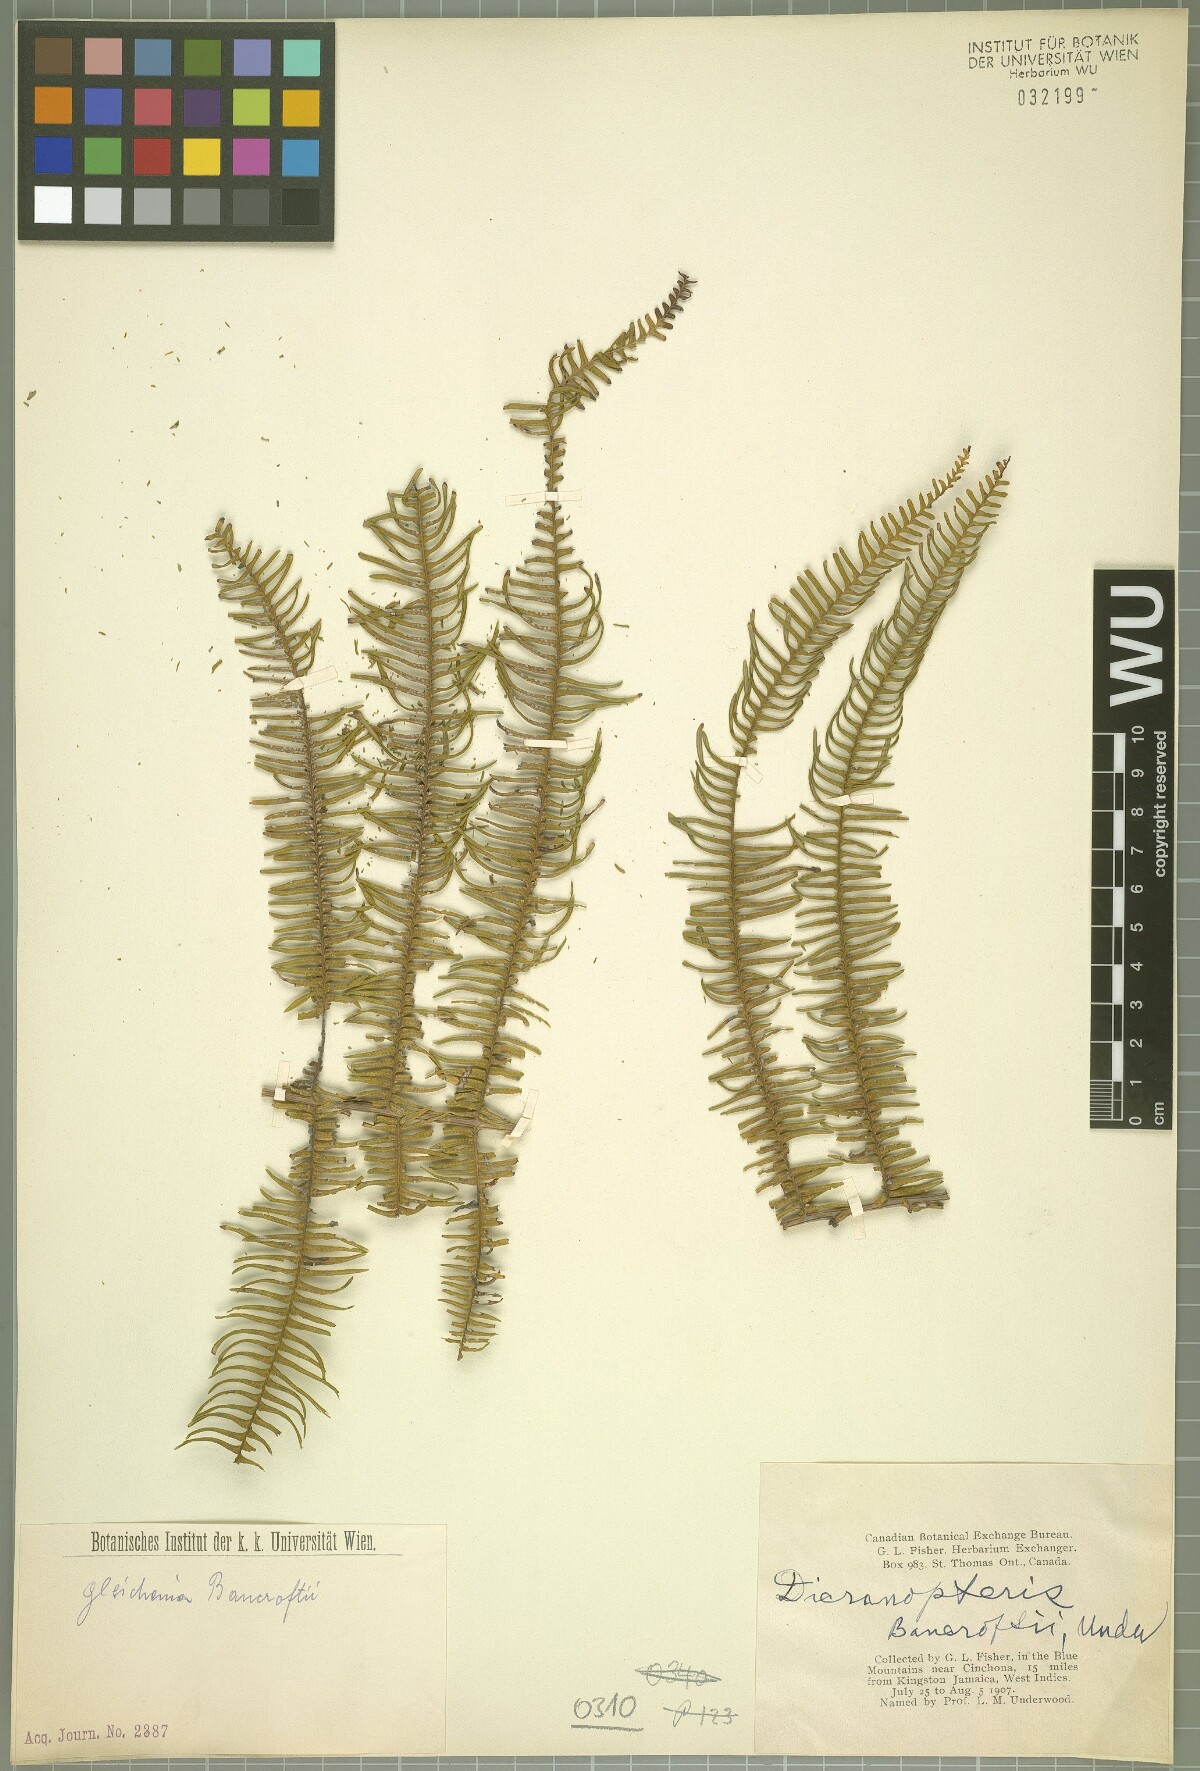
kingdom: Plantae
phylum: Tracheophyta
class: Polypodiopsida
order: Gleicheniales
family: Gleicheniaceae
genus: Diplopterygium
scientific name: Diplopterygium bancroftii
